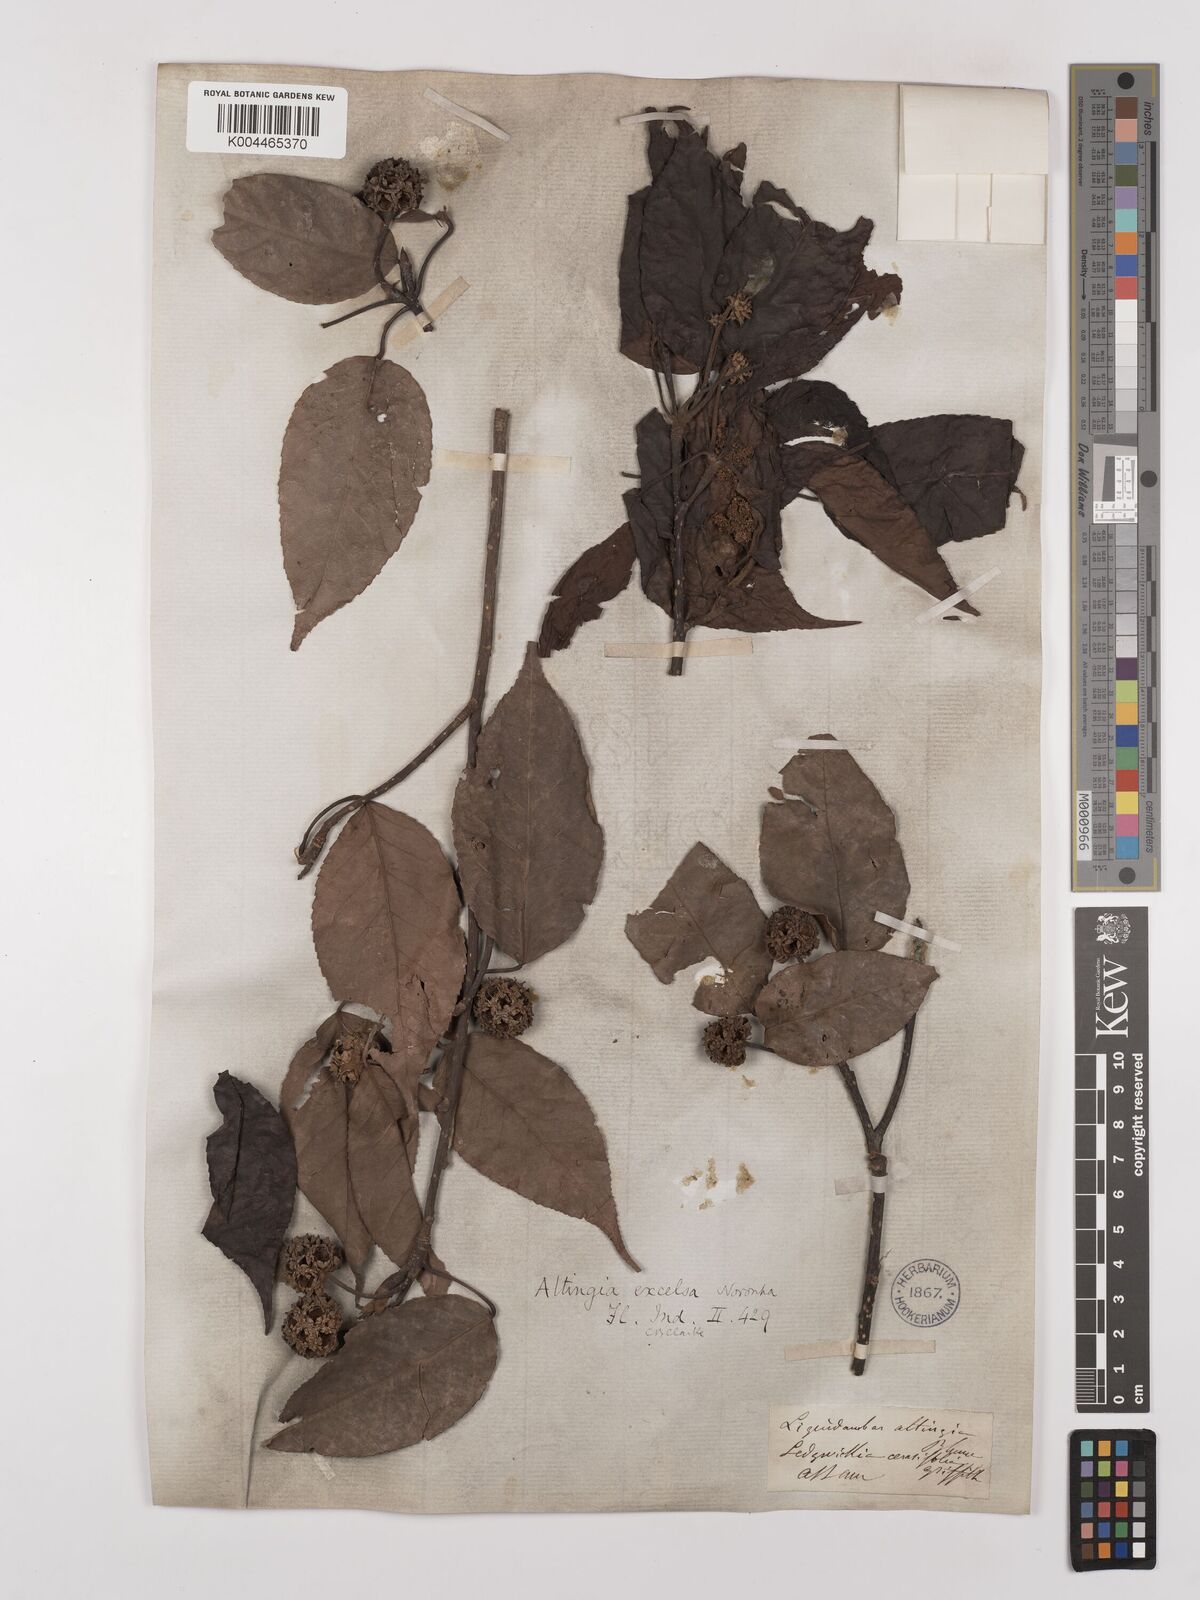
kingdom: Plantae
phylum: Tracheophyta
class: Magnoliopsida
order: Saxifragales
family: Altingiaceae
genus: Liquidambar
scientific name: Liquidambar excelsa
